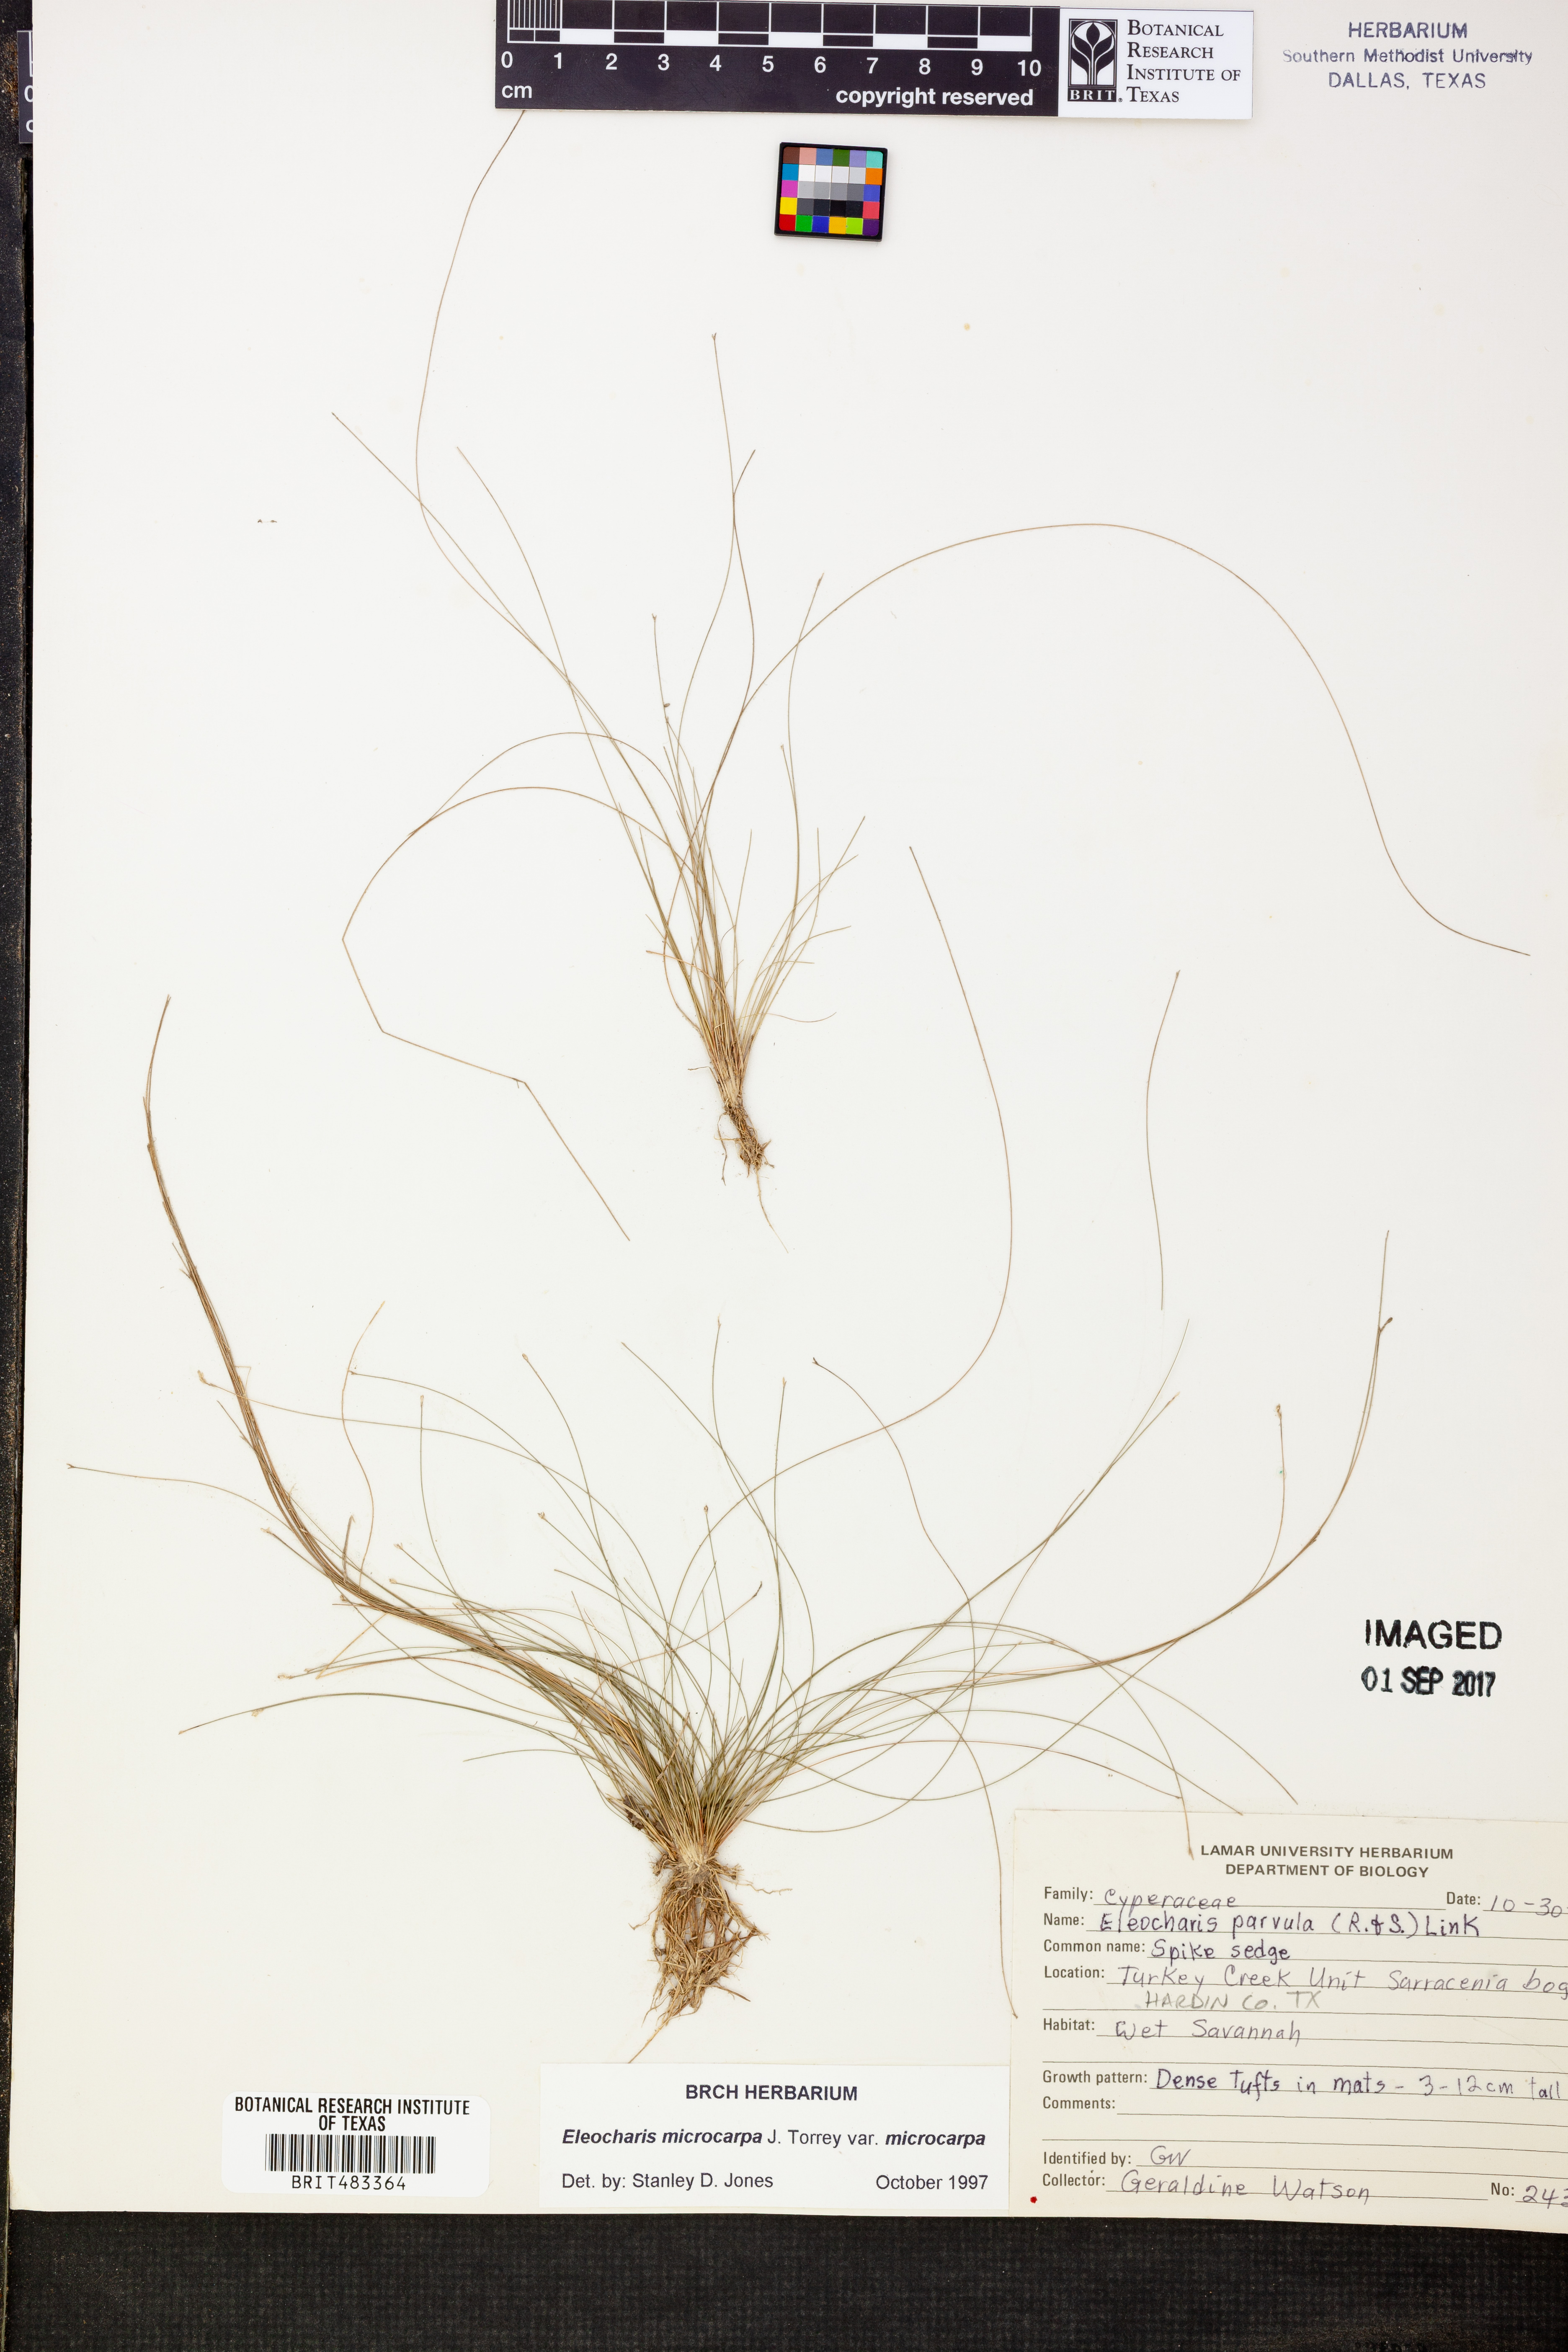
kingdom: Plantae
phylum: Tracheophyta
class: Liliopsida
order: Poales
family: Cyperaceae
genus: Eleocharis
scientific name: Eleocharis microcarpa
